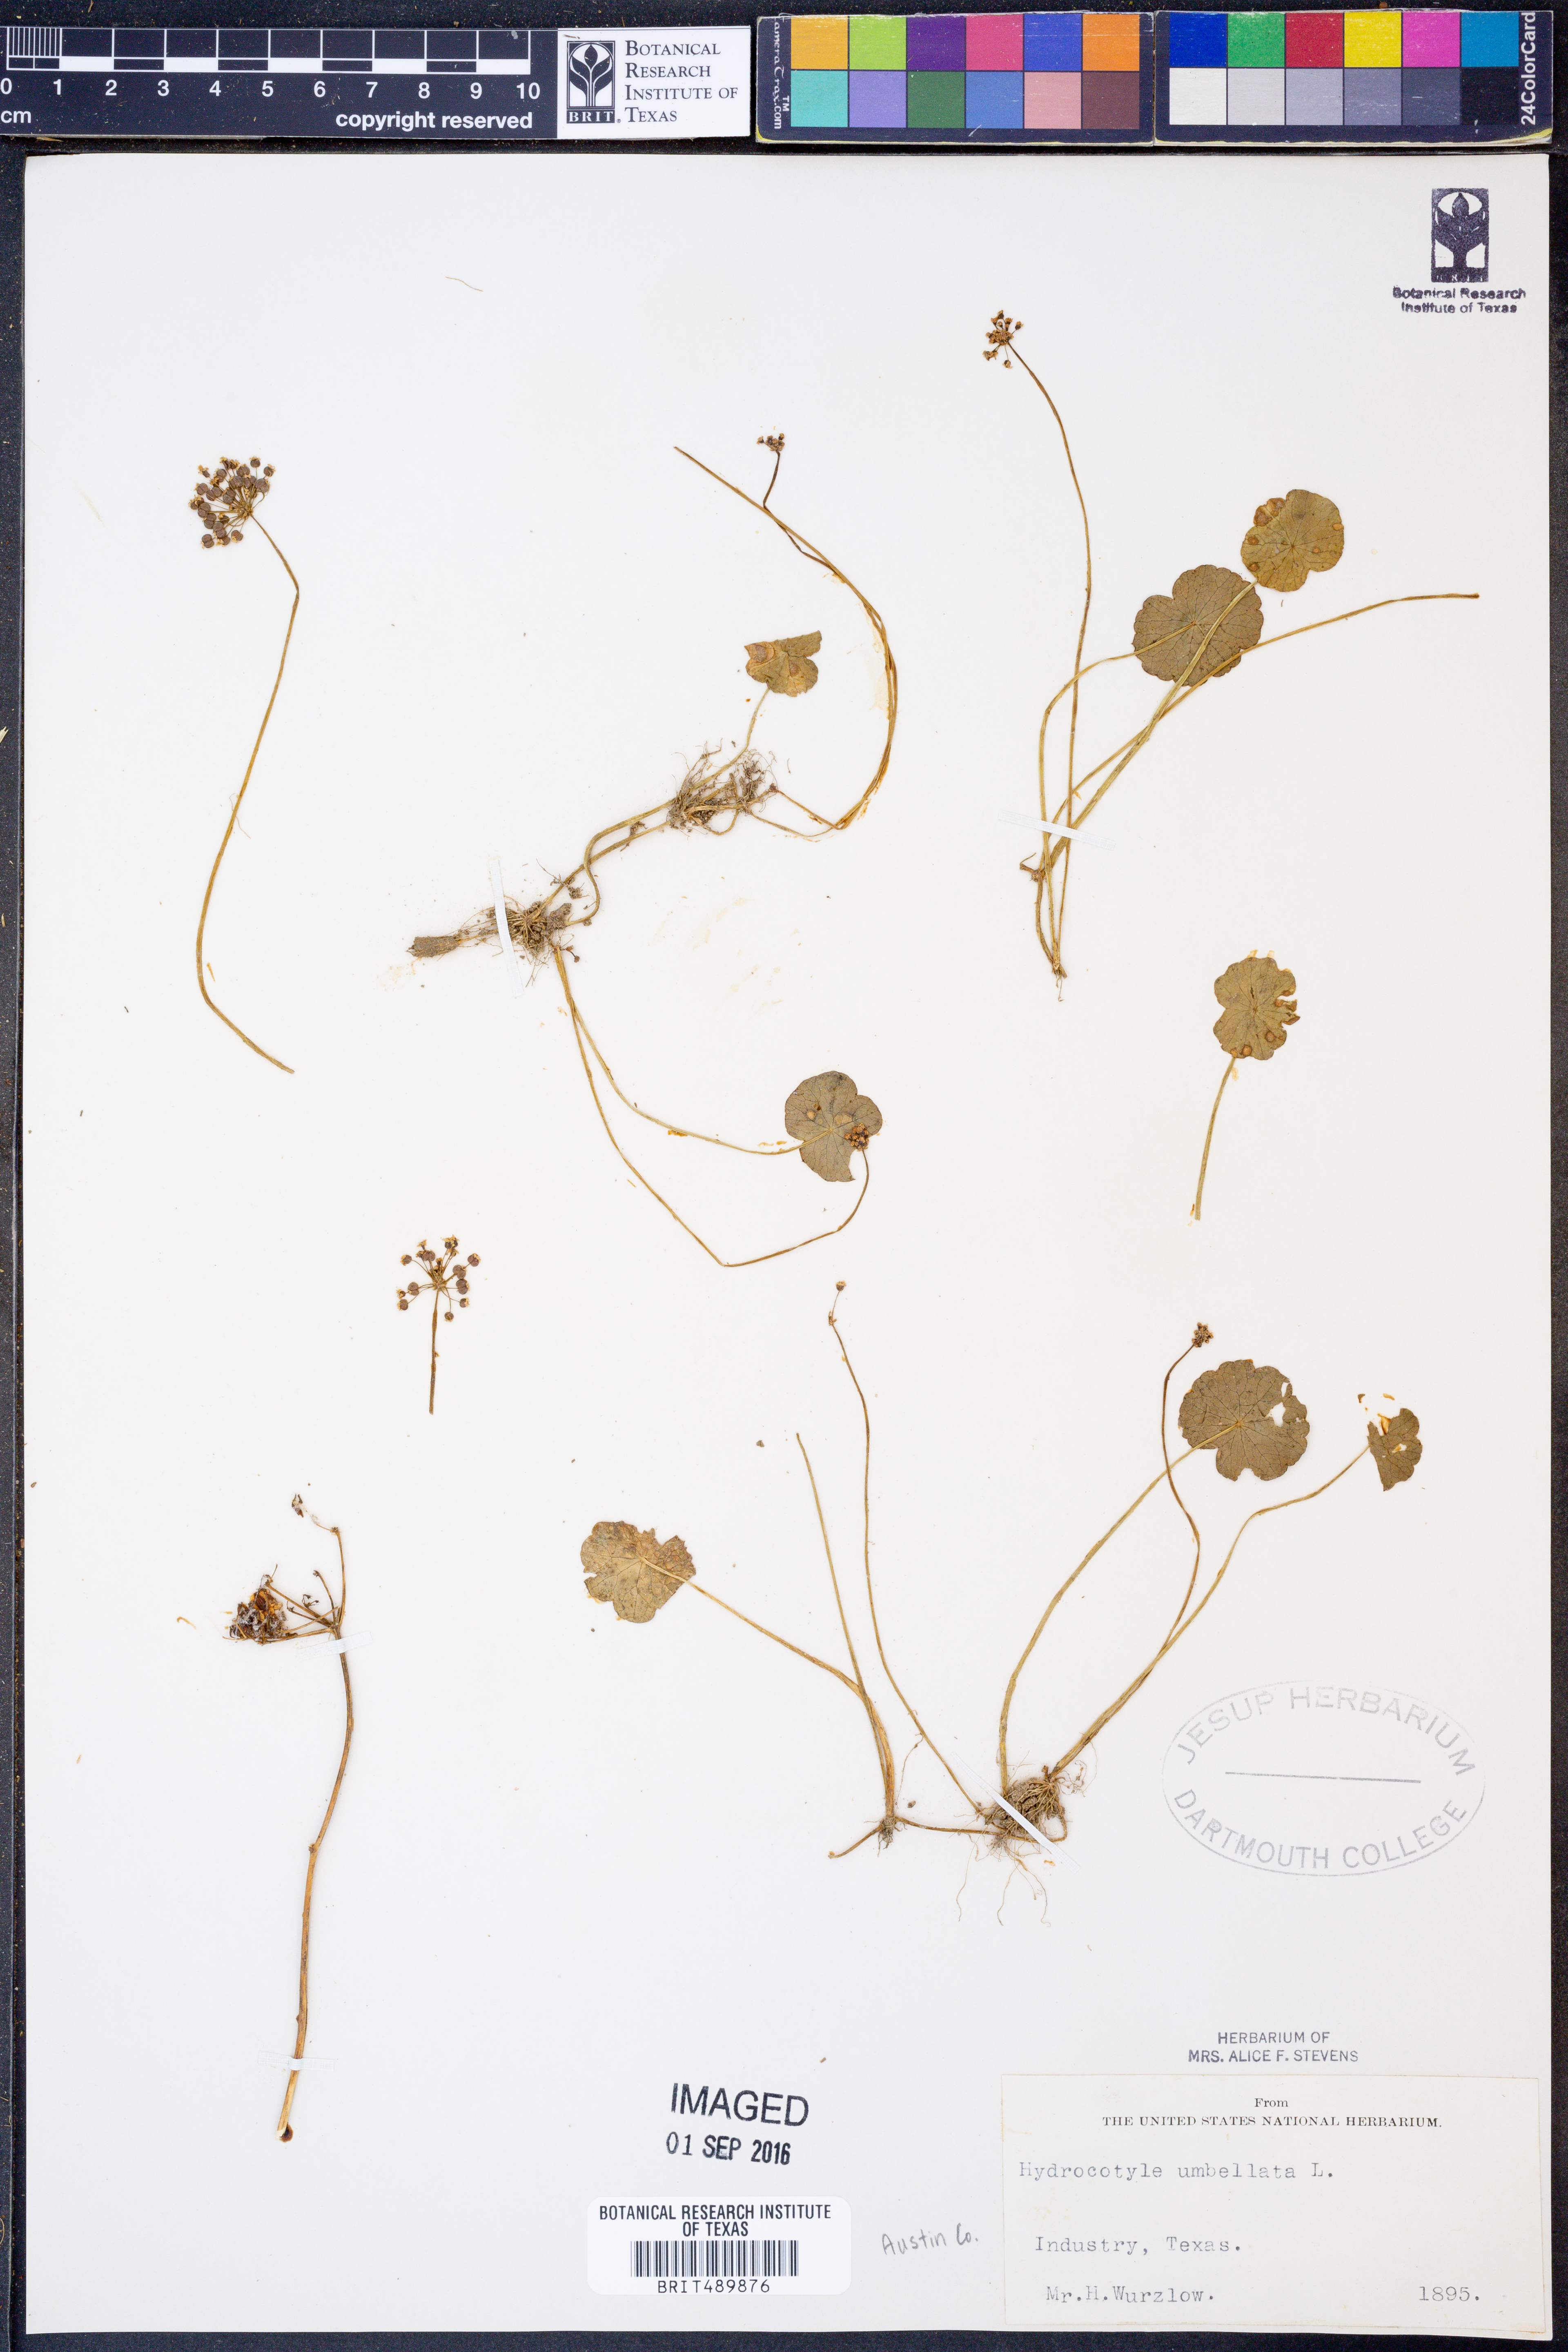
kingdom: Plantae
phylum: Tracheophyta
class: Magnoliopsida
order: Apiales
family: Araliaceae
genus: Hydrocotyle
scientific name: Hydrocotyle umbellata
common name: Water pennywort
